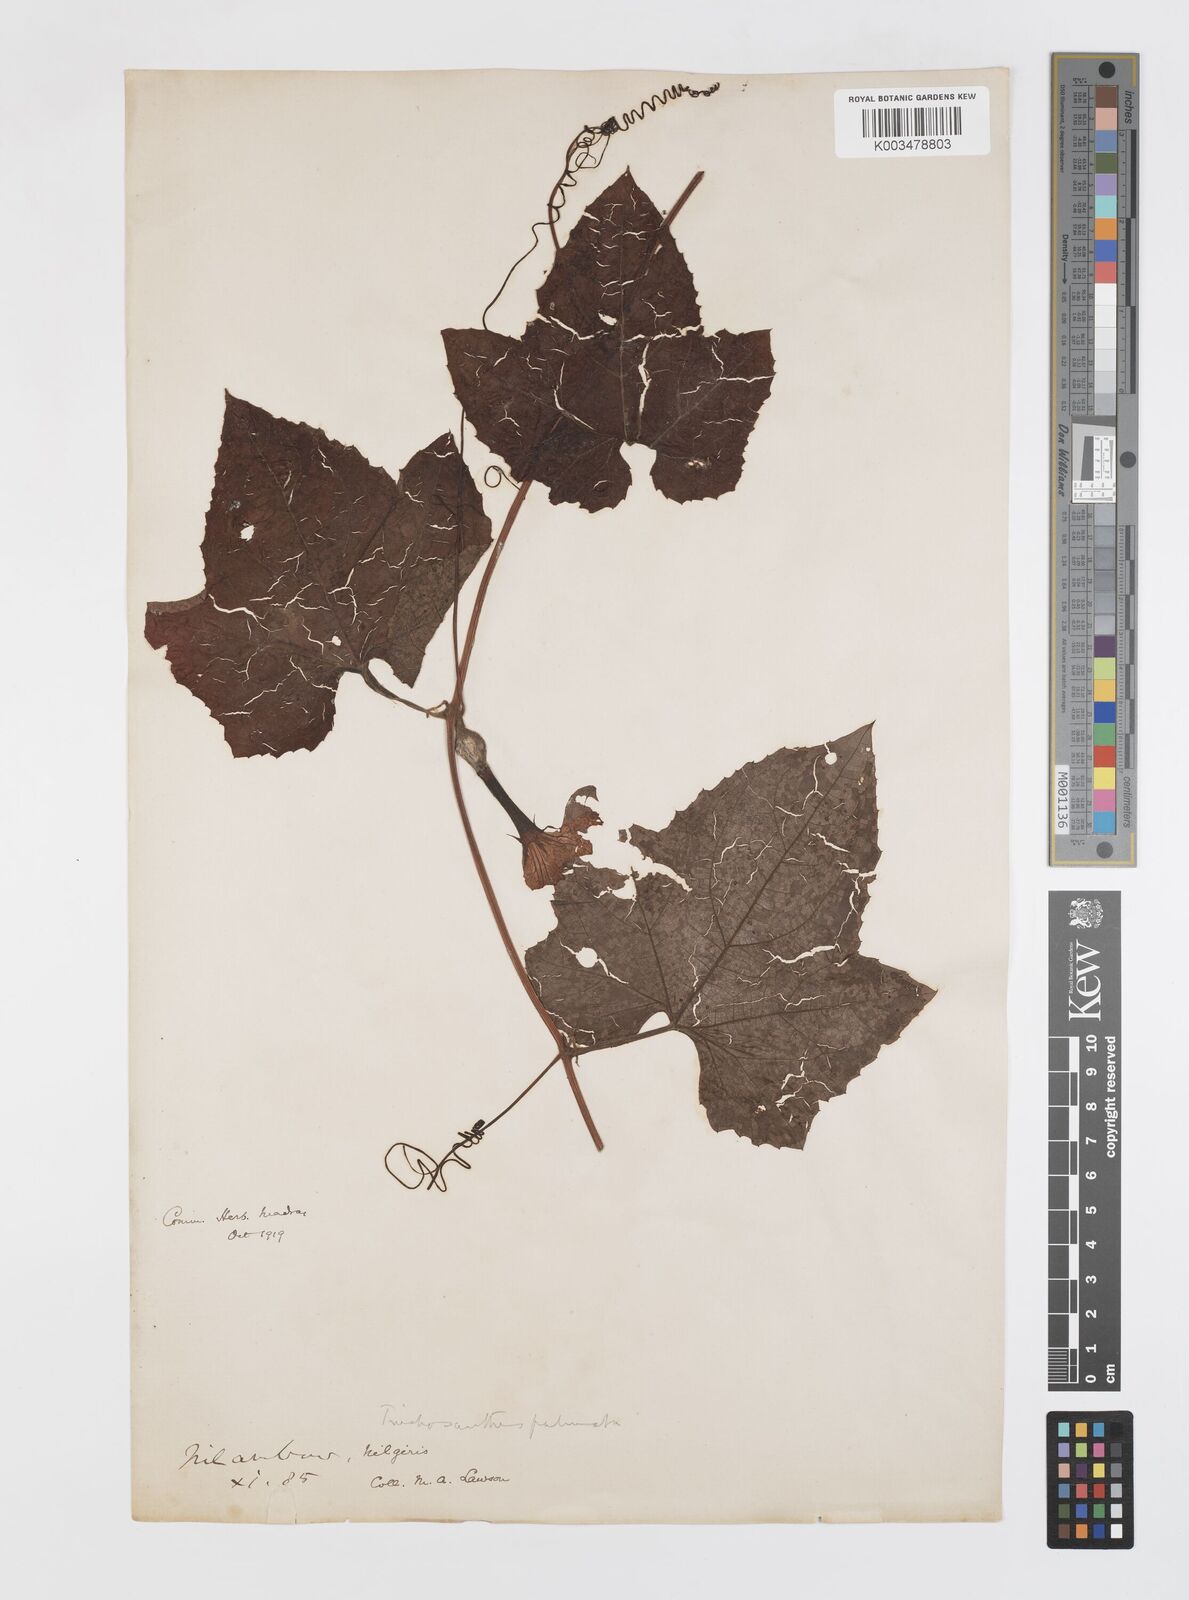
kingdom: Plantae
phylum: Tracheophyta
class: Magnoliopsida
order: Cucurbitales
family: Cucurbitaceae
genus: Trichosanthes
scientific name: Trichosanthes anaimalaiensis
